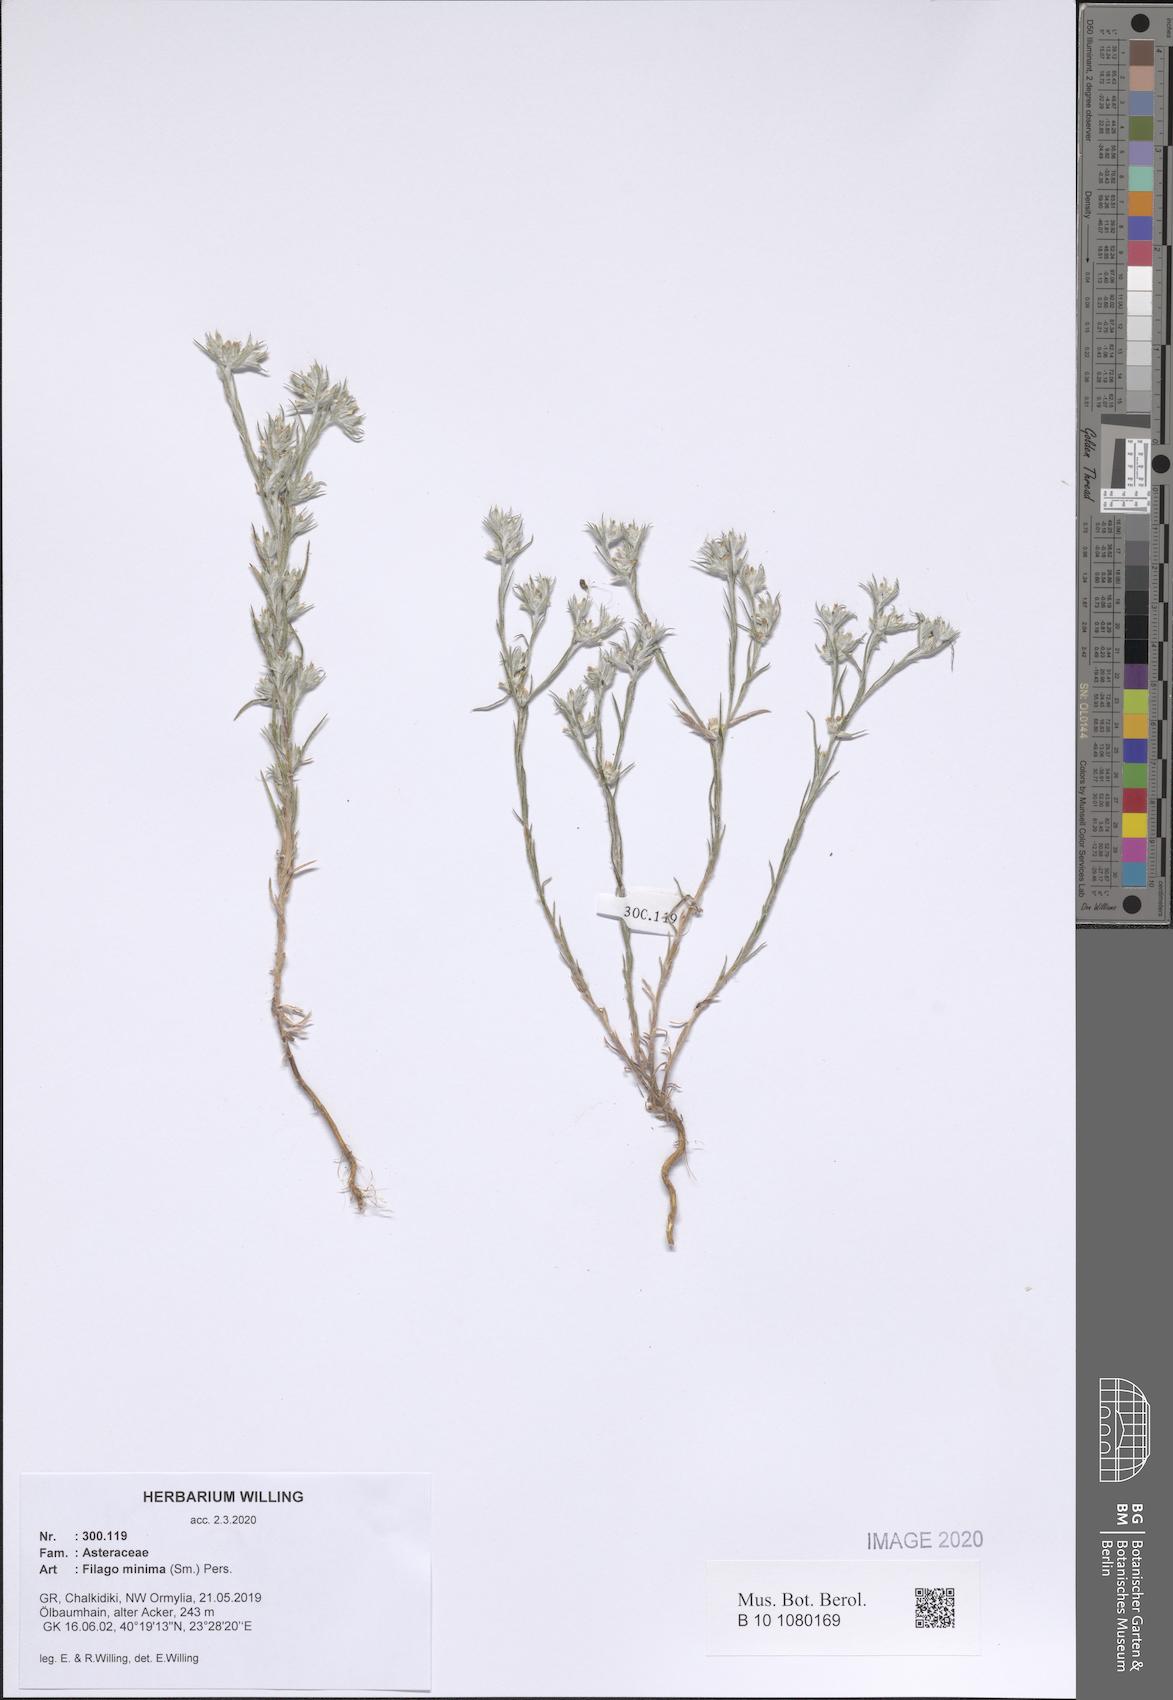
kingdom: Plantae
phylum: Tracheophyta
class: Magnoliopsida
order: Asterales
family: Asteraceae
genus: Logfia
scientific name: Logfia minima
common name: Little cottonrose
